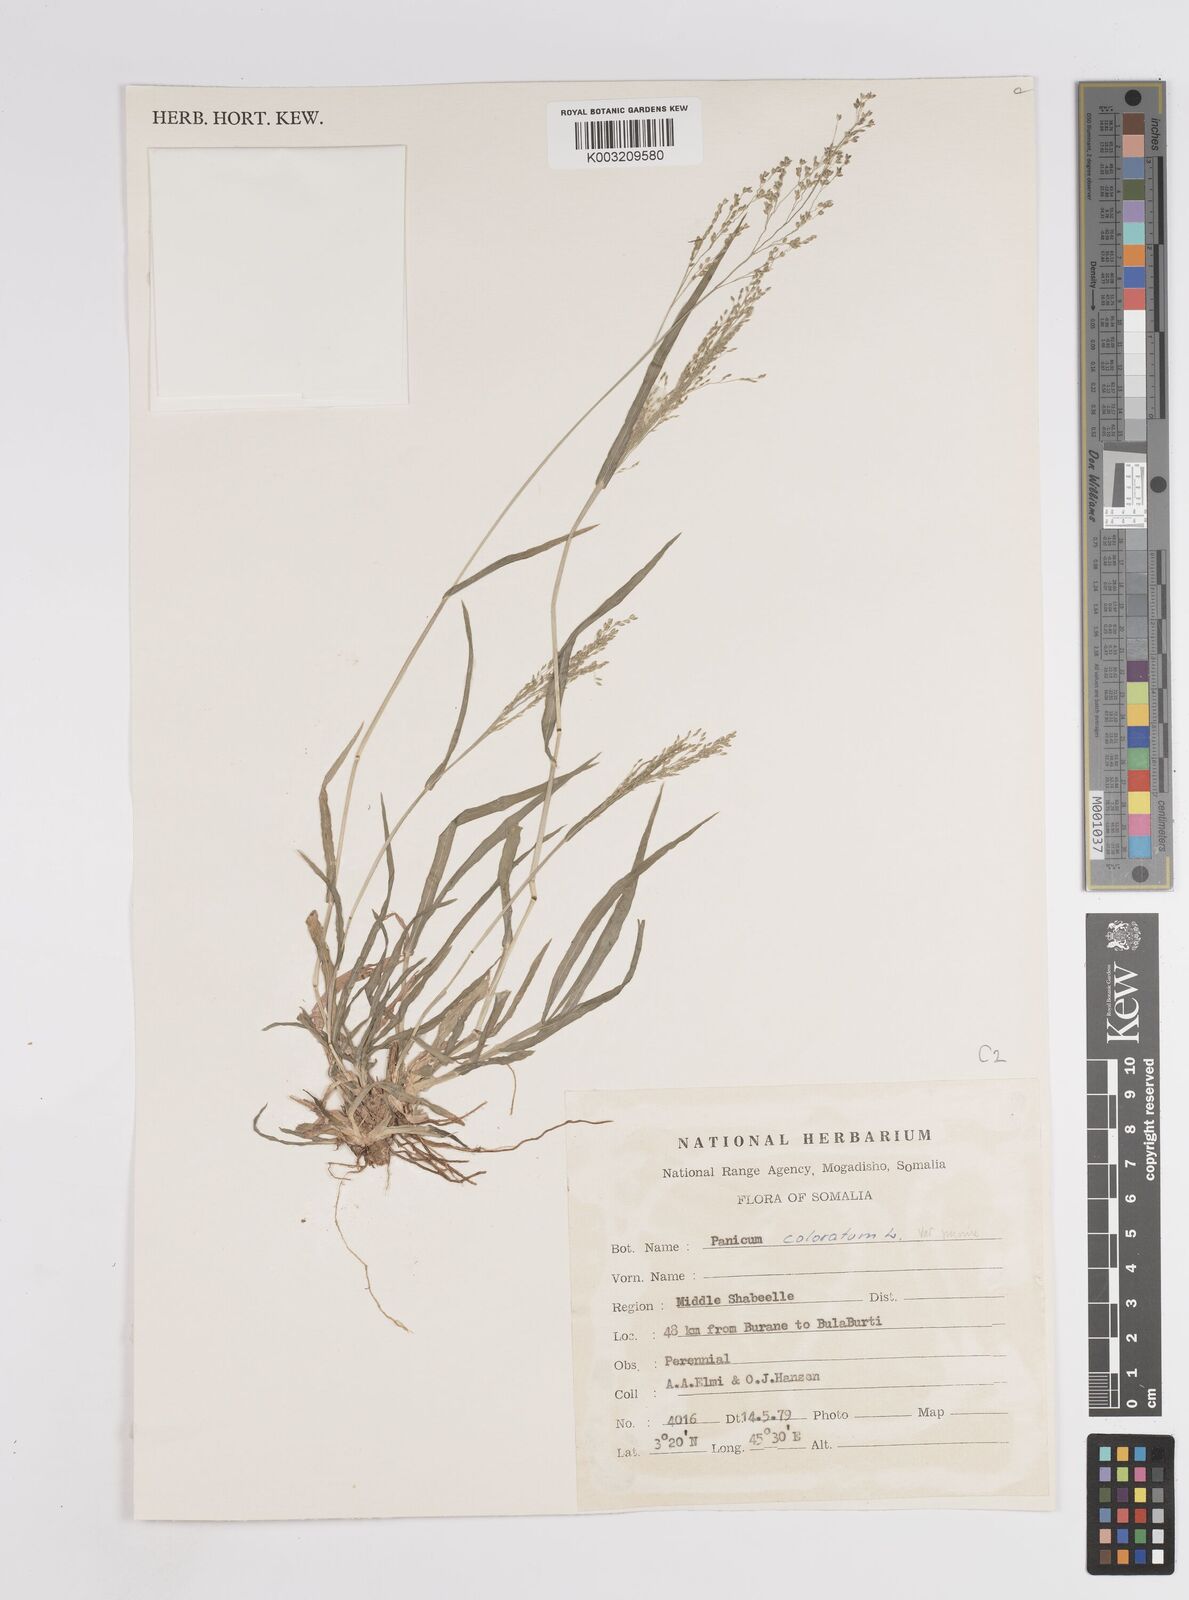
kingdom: Plantae
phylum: Tracheophyta
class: Liliopsida
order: Poales
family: Poaceae
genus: Panicum
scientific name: Panicum coloratum
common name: Kleingrass
